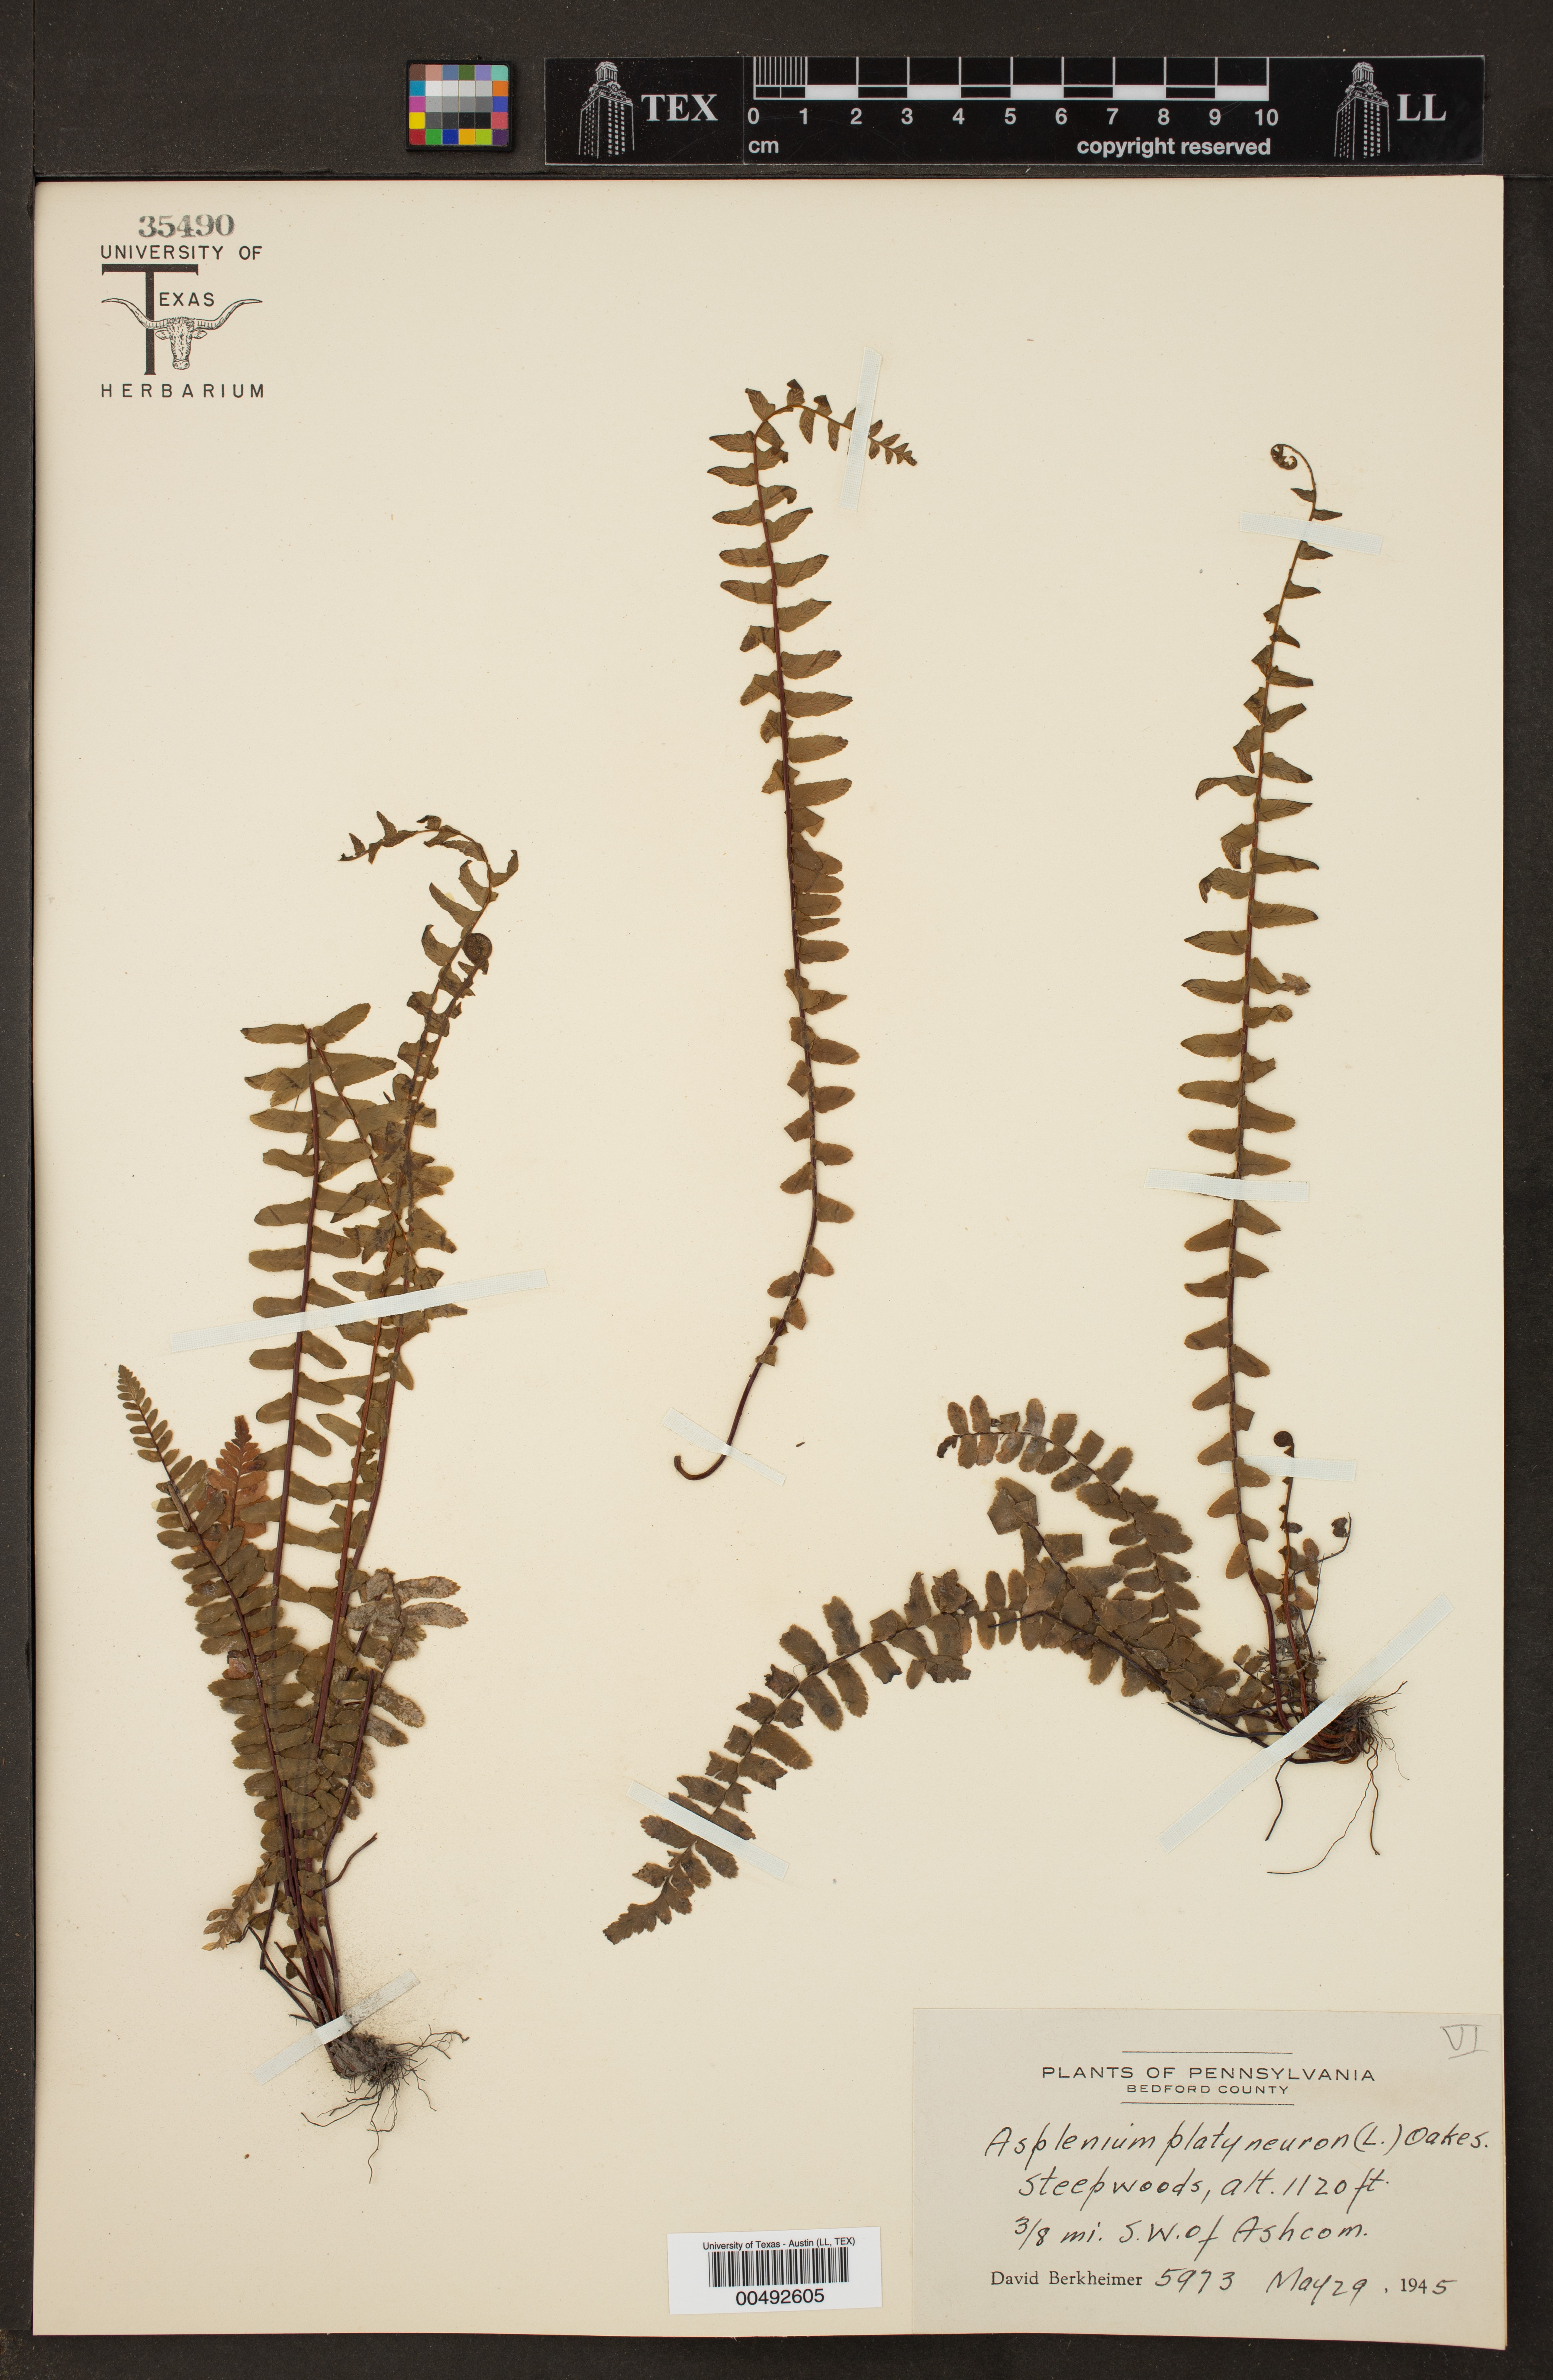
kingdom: Plantae
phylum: Tracheophyta
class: Polypodiopsida
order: Polypodiales
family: Aspleniaceae
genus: Asplenium
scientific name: Asplenium platyneuron
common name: Ebony spleenwort
